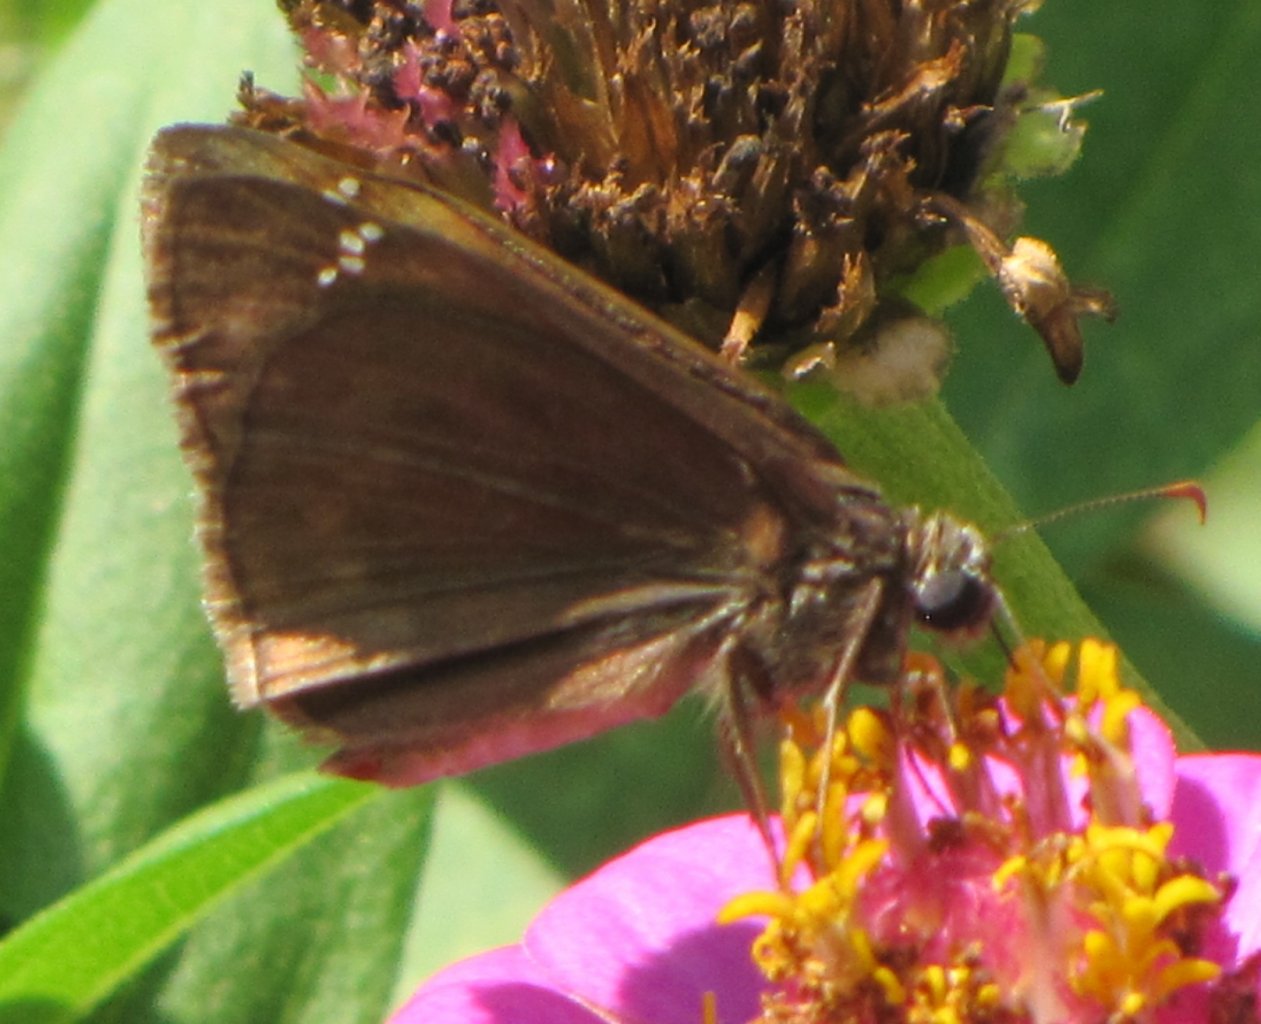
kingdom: Animalia
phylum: Arthropoda
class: Insecta
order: Lepidoptera
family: Hesperiidae
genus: Gesta
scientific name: Gesta
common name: Horace's Duskywing
